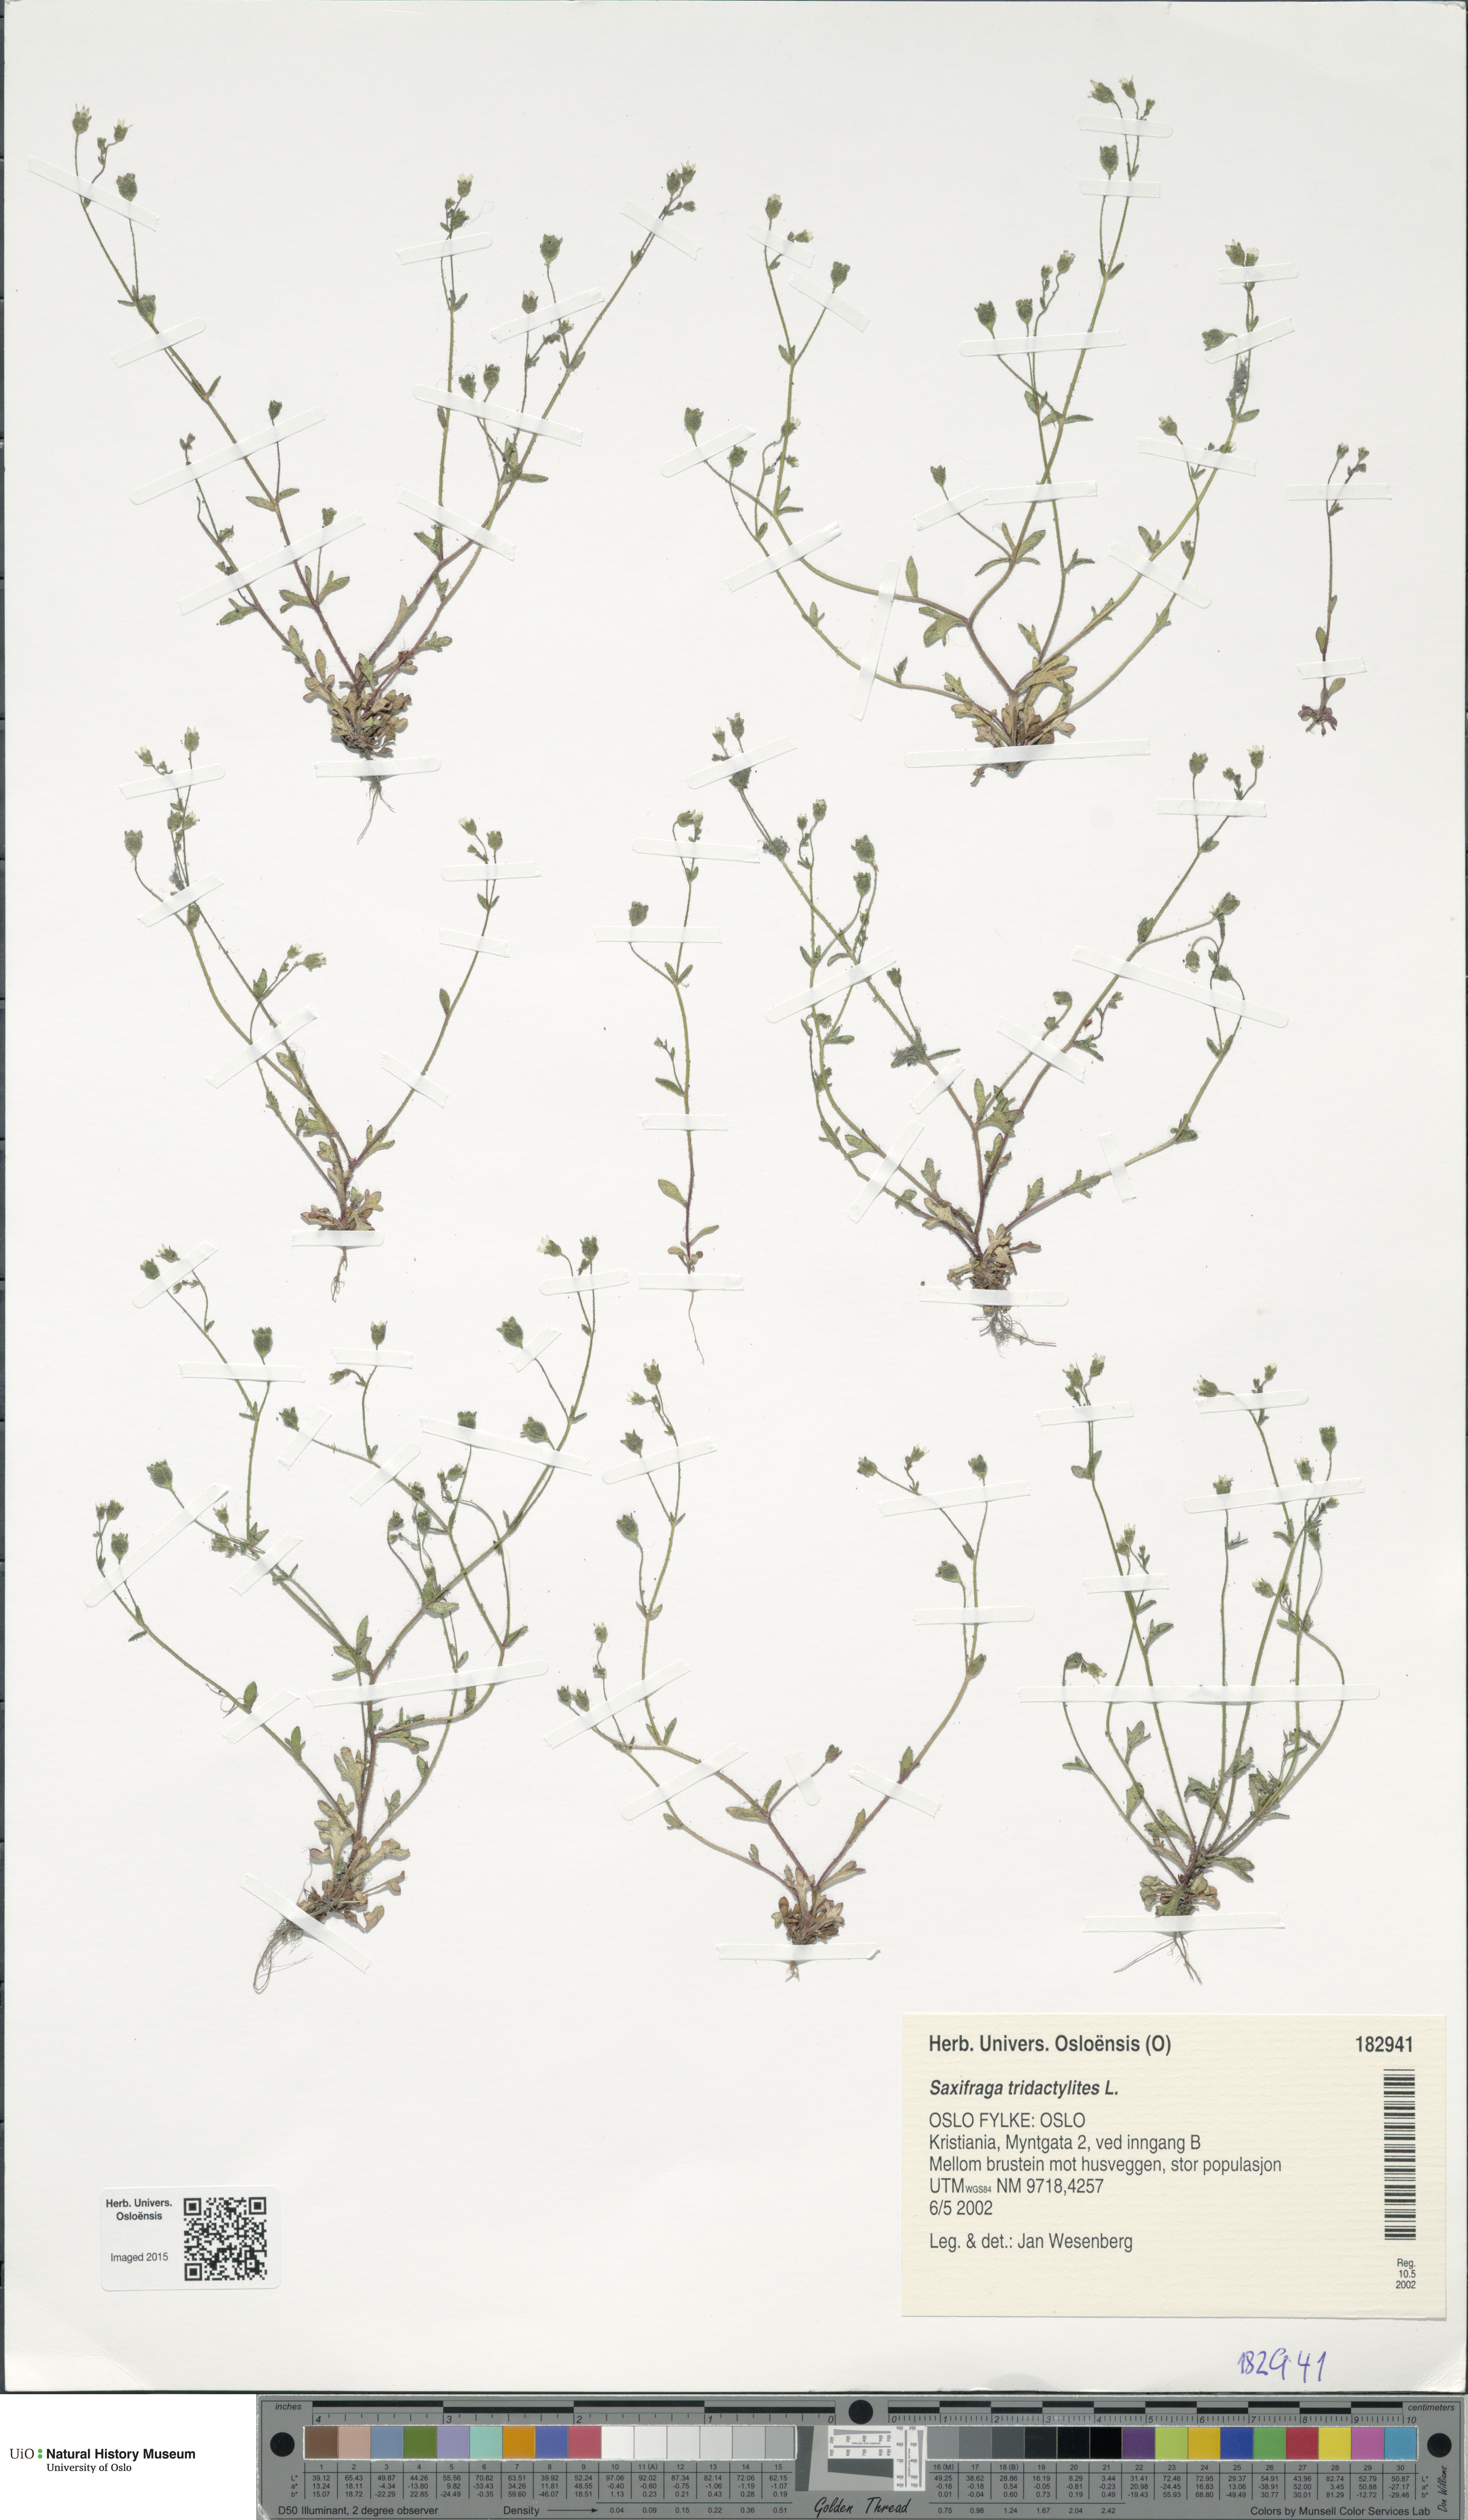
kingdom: Plantae
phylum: Tracheophyta
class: Magnoliopsida
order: Saxifragales
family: Saxifragaceae
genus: Saxifraga
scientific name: Saxifraga tridactylites
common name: Rue-leaved saxifrage
